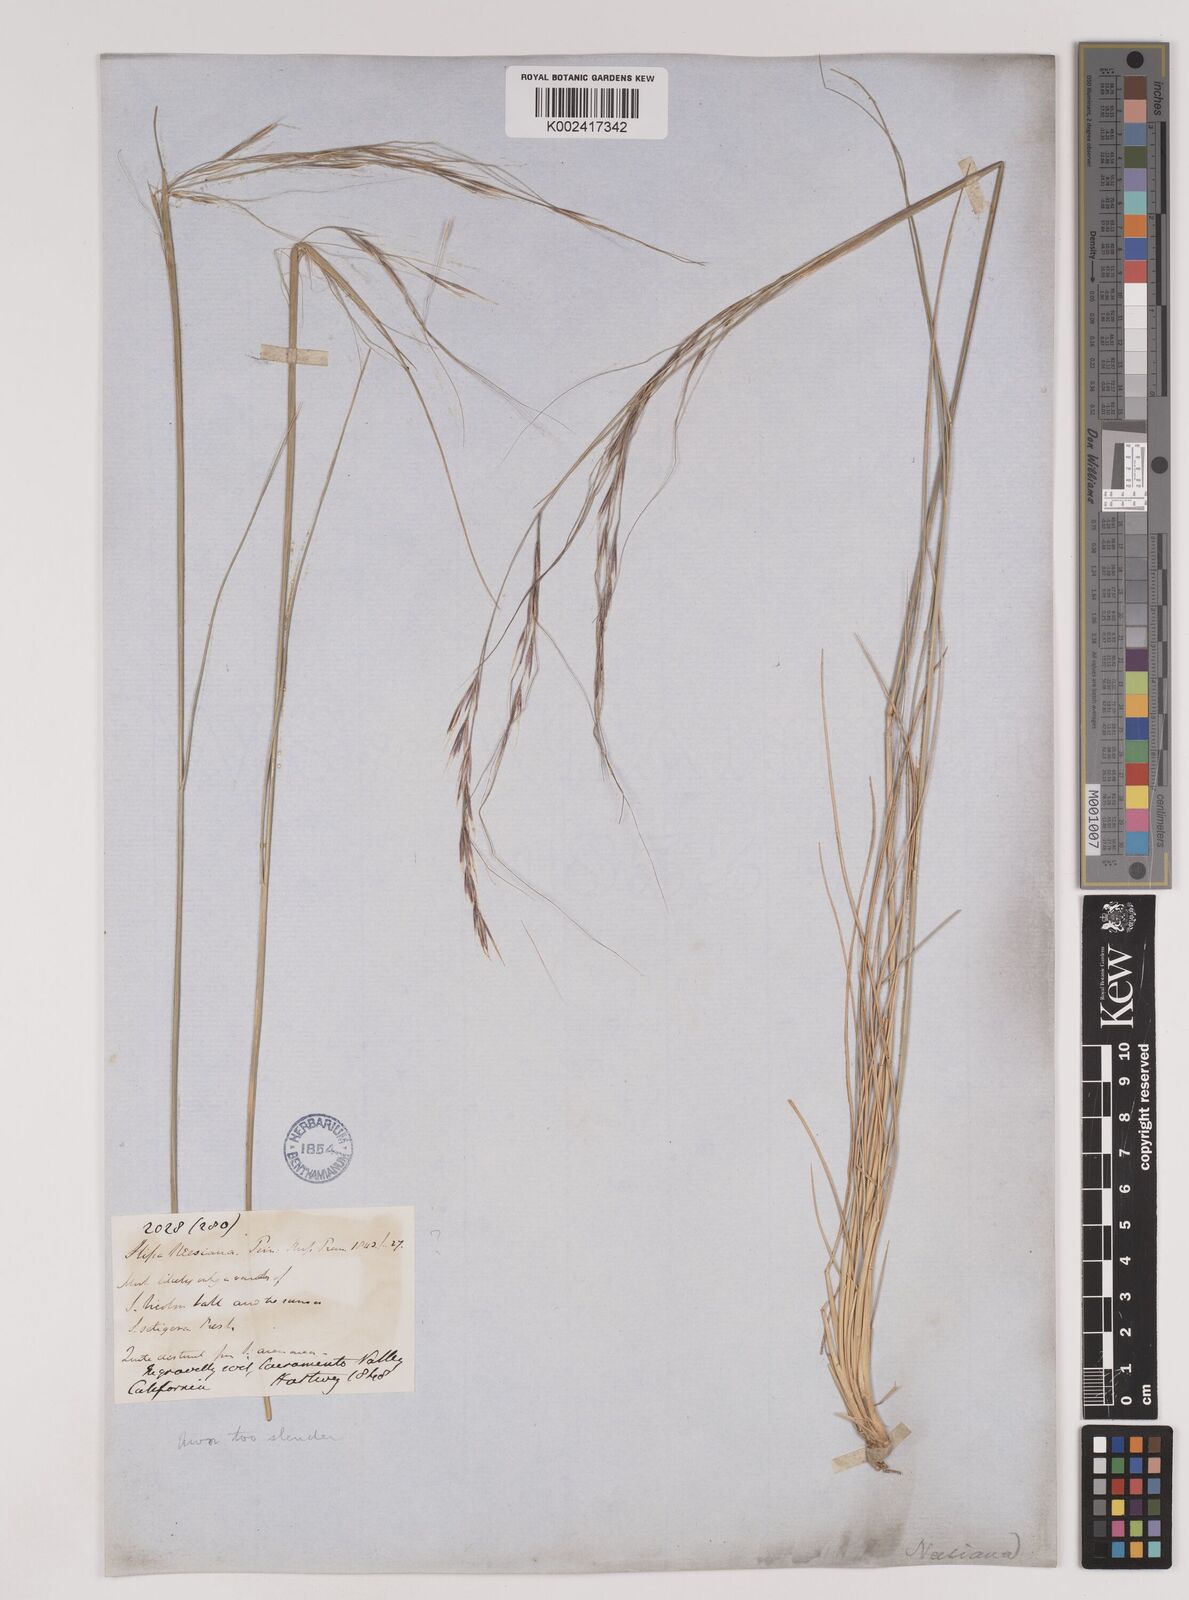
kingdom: Plantae
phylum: Tracheophyta
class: Liliopsida
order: Poales
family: Poaceae
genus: Nassella
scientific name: Nassella pulchra
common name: Purple needlegrass
